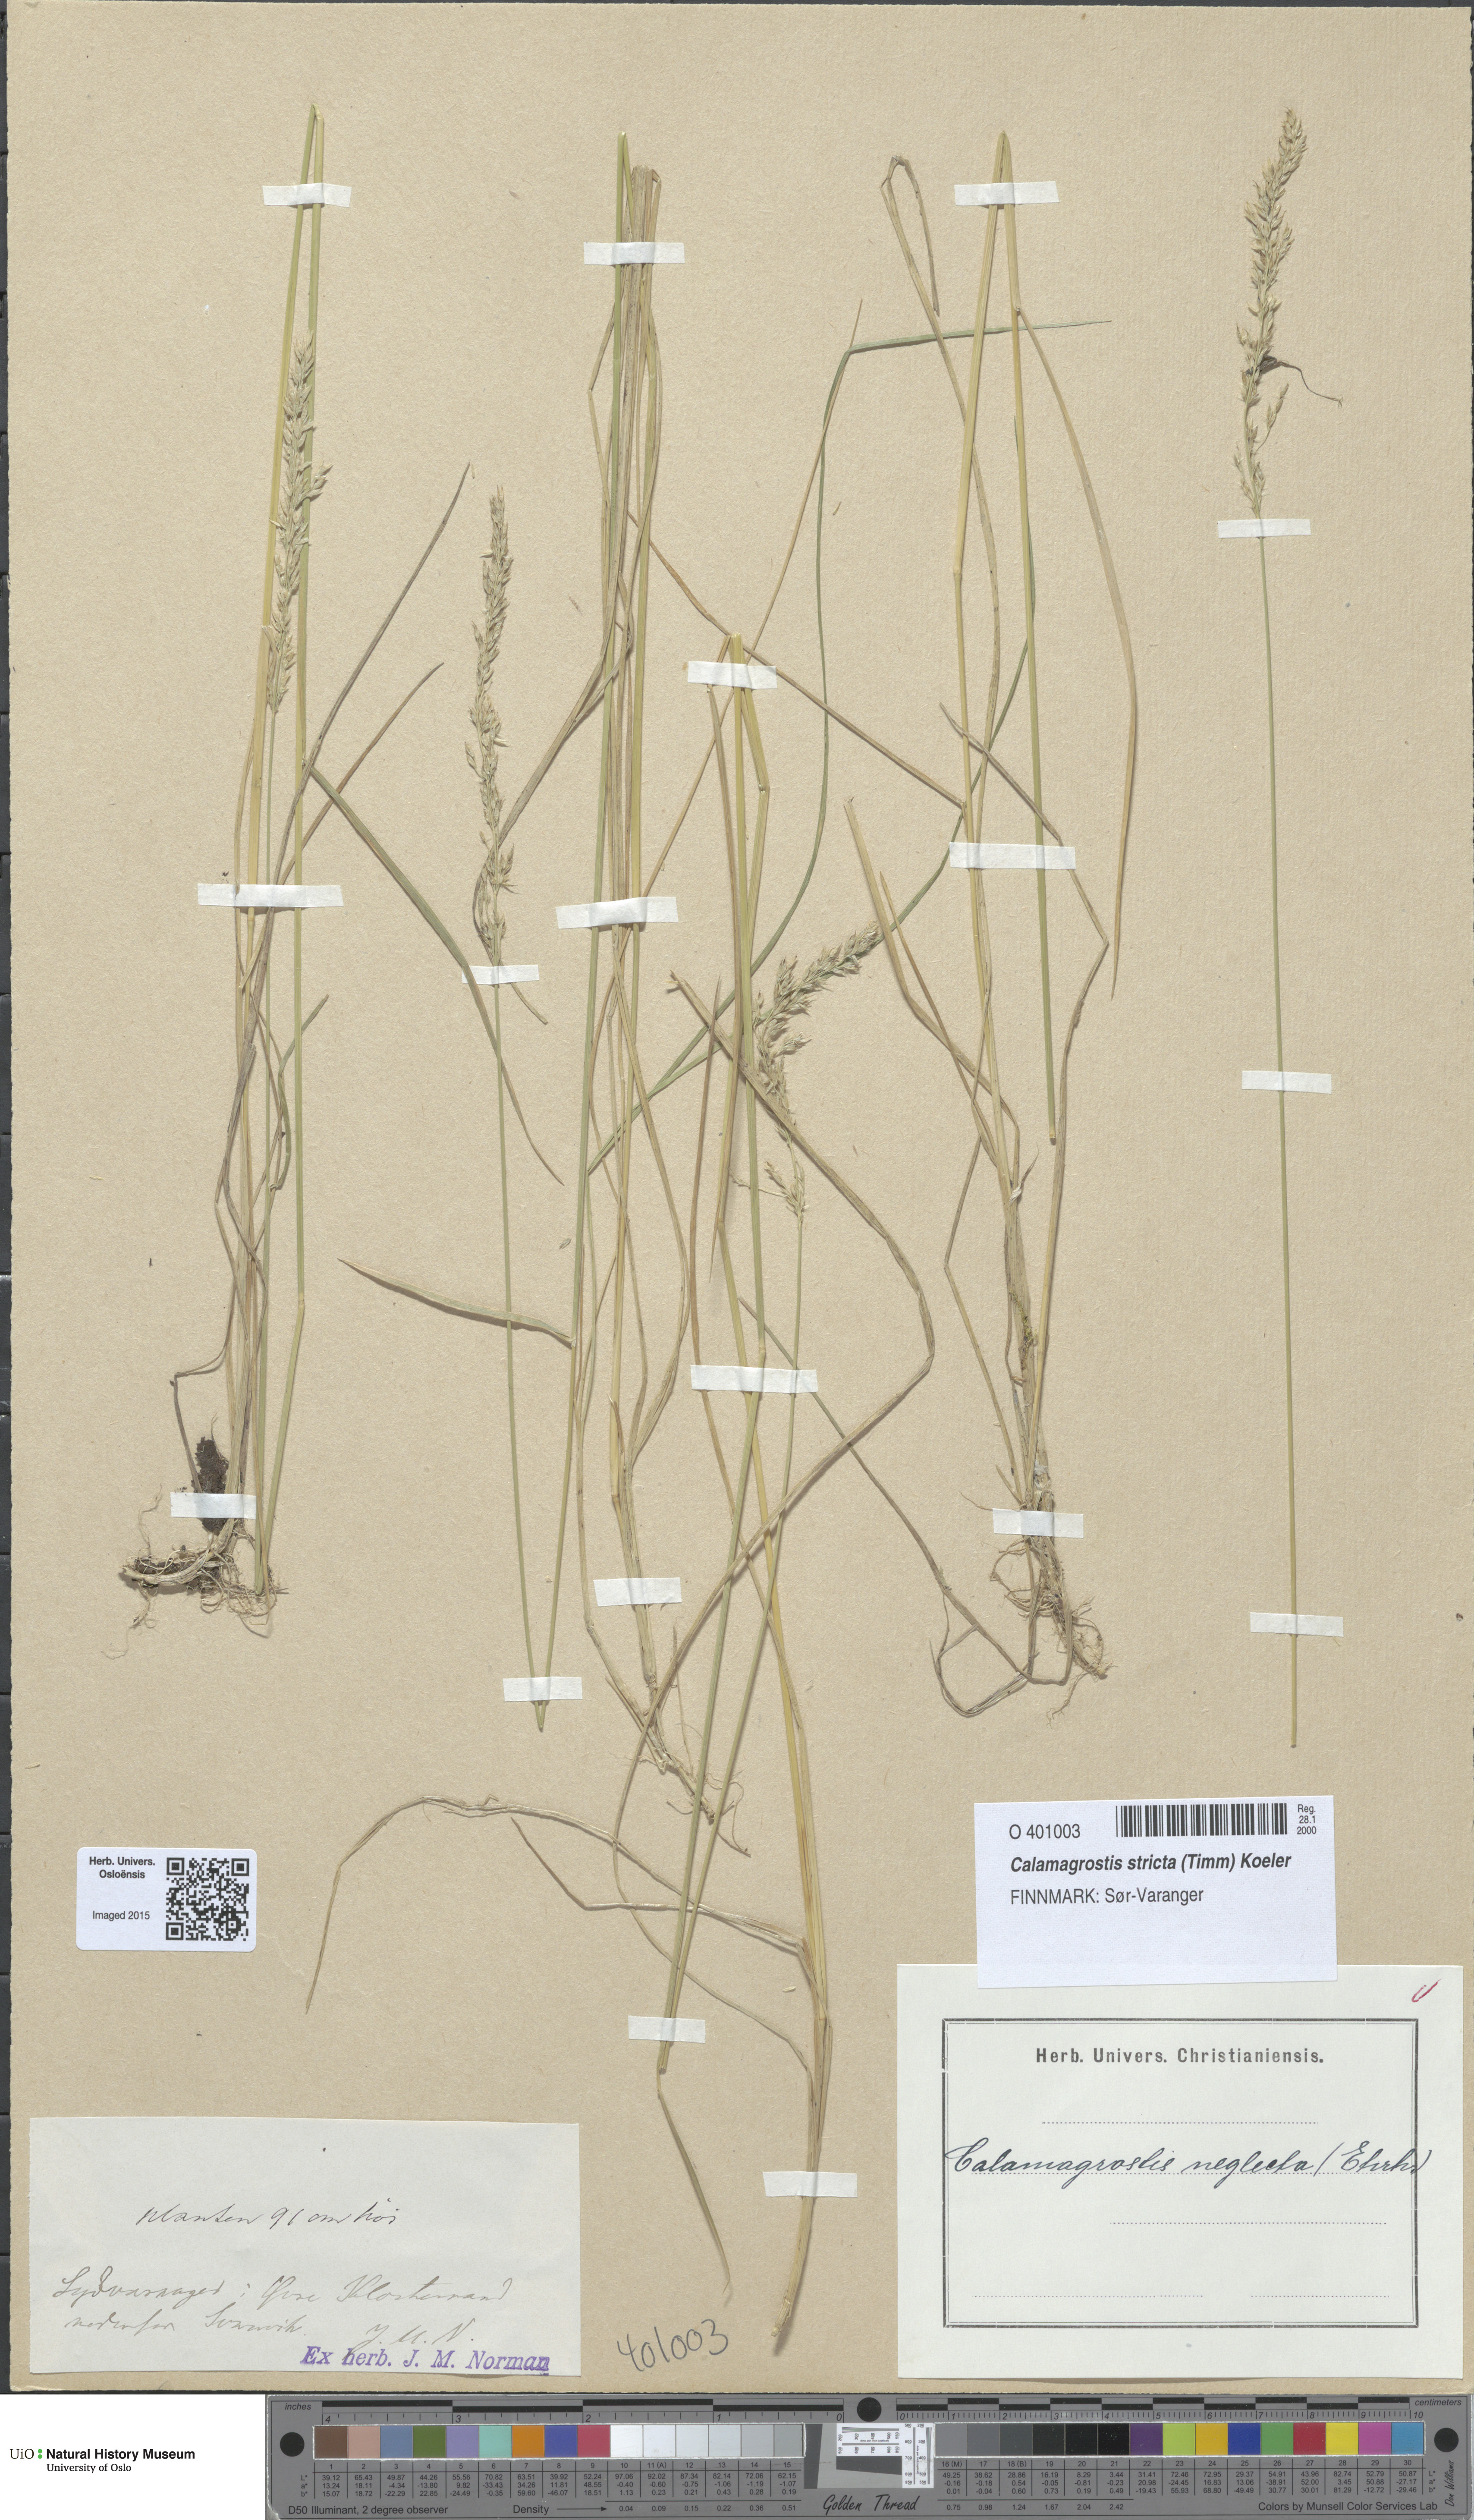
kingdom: Plantae
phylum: Tracheophyta
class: Liliopsida
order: Poales
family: Poaceae
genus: Achnatherum
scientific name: Achnatherum calamagrostis
